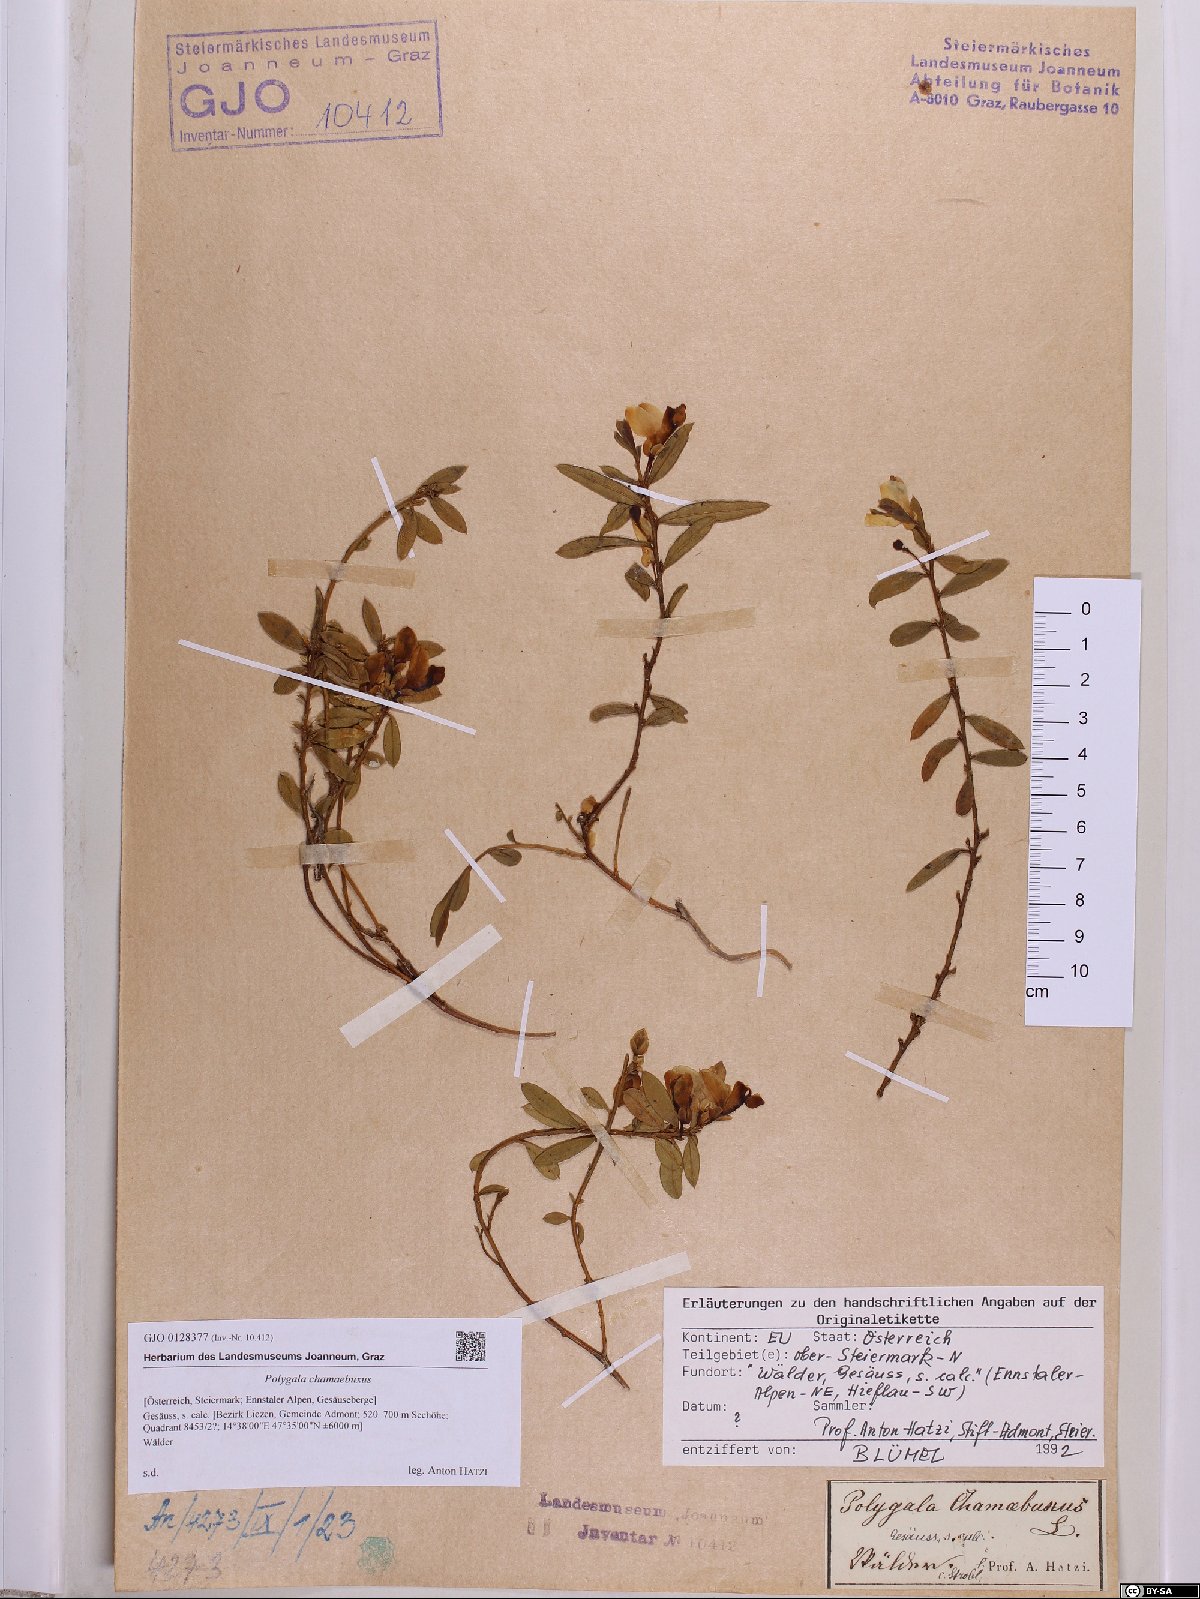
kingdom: Plantae
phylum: Tracheophyta
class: Magnoliopsida
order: Fabales
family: Polygalaceae
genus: Polygaloides
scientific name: Polygaloides chamaebuxus
